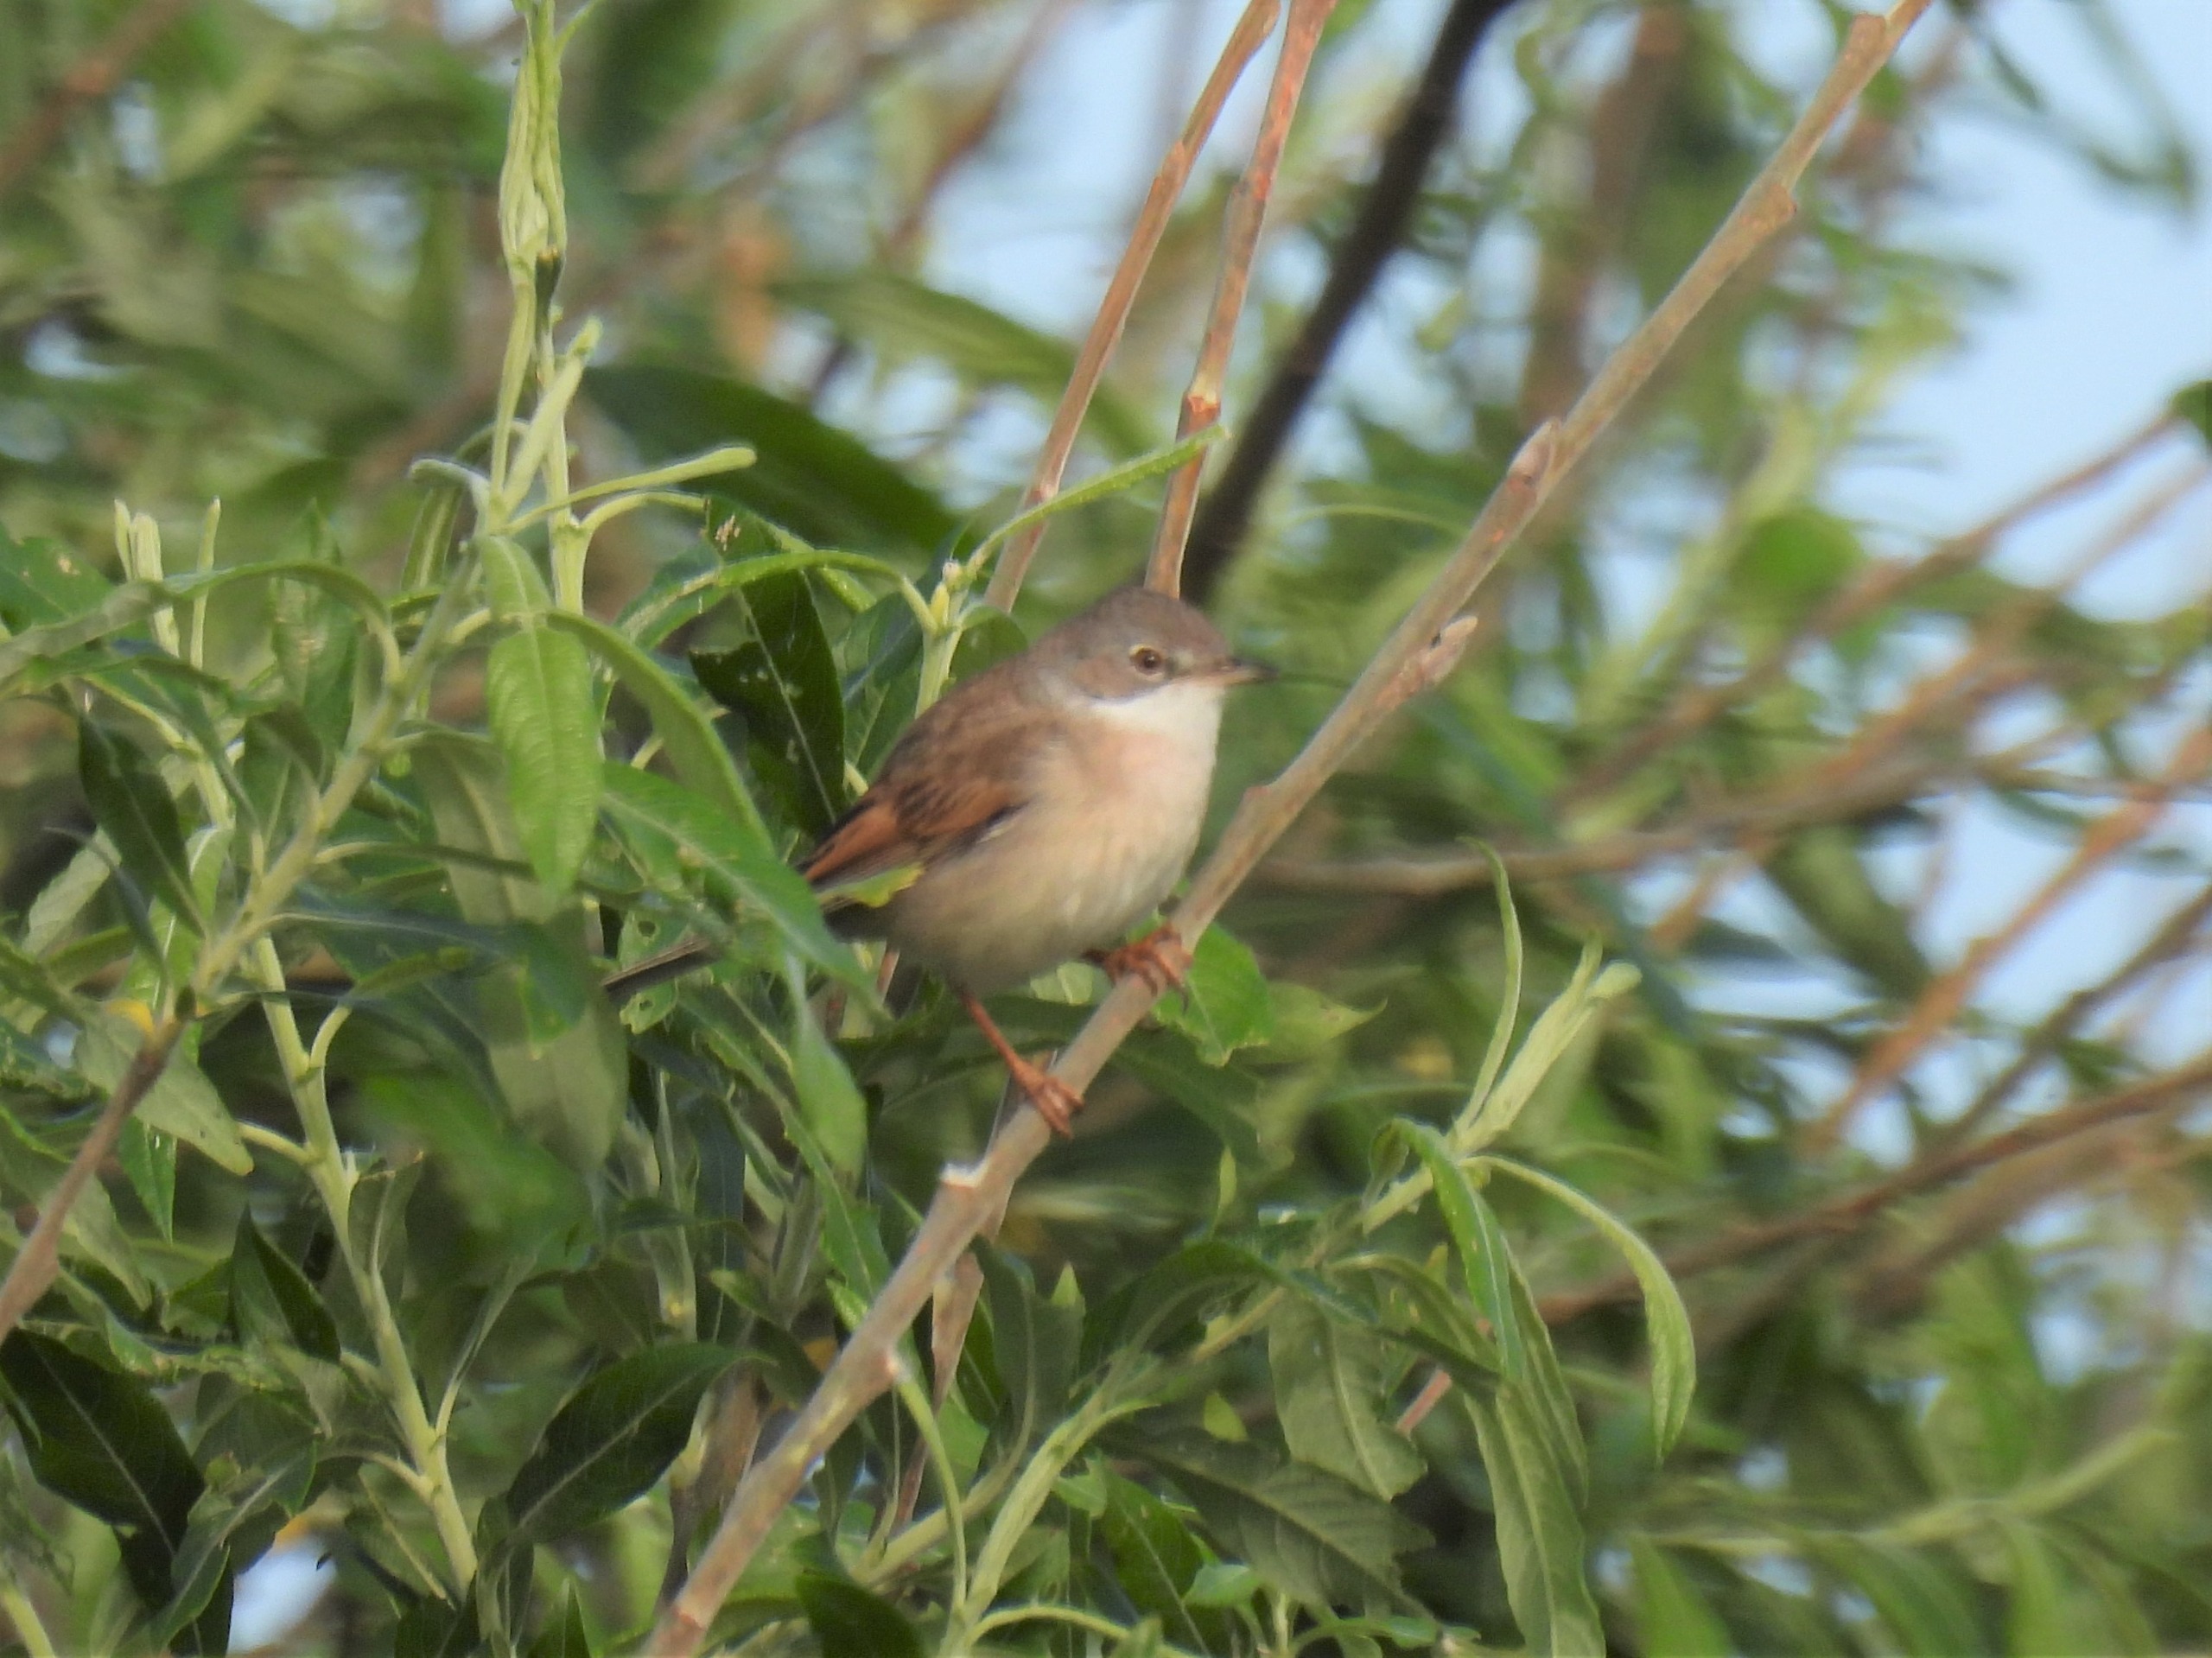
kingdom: Animalia
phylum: Chordata
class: Aves
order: Passeriformes
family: Sylviidae
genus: Sylvia
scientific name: Sylvia communis
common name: Tornsanger
